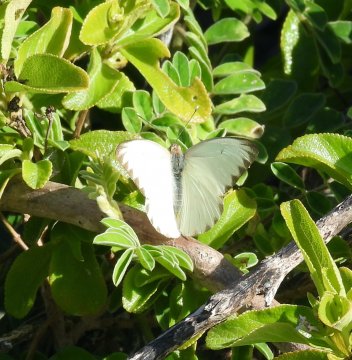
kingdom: Animalia
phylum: Arthropoda
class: Insecta
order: Lepidoptera
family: Pieridae
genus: Ascia
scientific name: Ascia monuste
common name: Great Southern White
